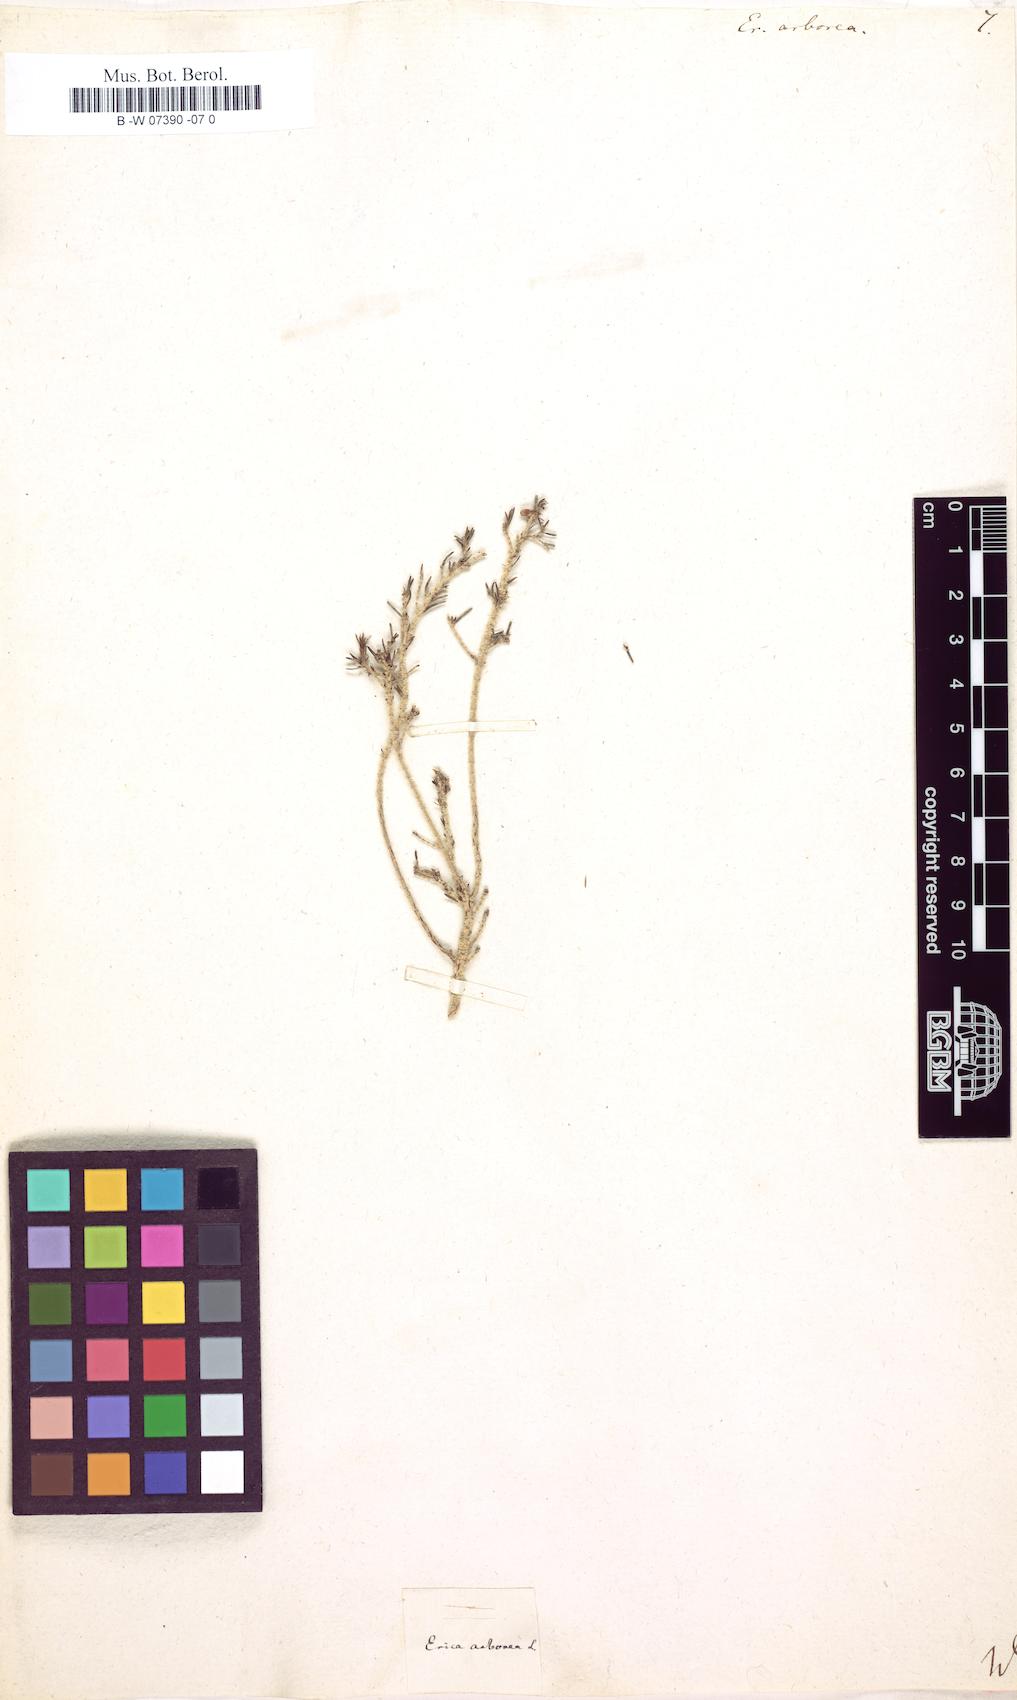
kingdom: Plantae
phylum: Tracheophyta
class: Magnoliopsida
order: Ericales
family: Ericaceae
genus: Erica
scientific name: Erica arborea
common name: Tree heath
